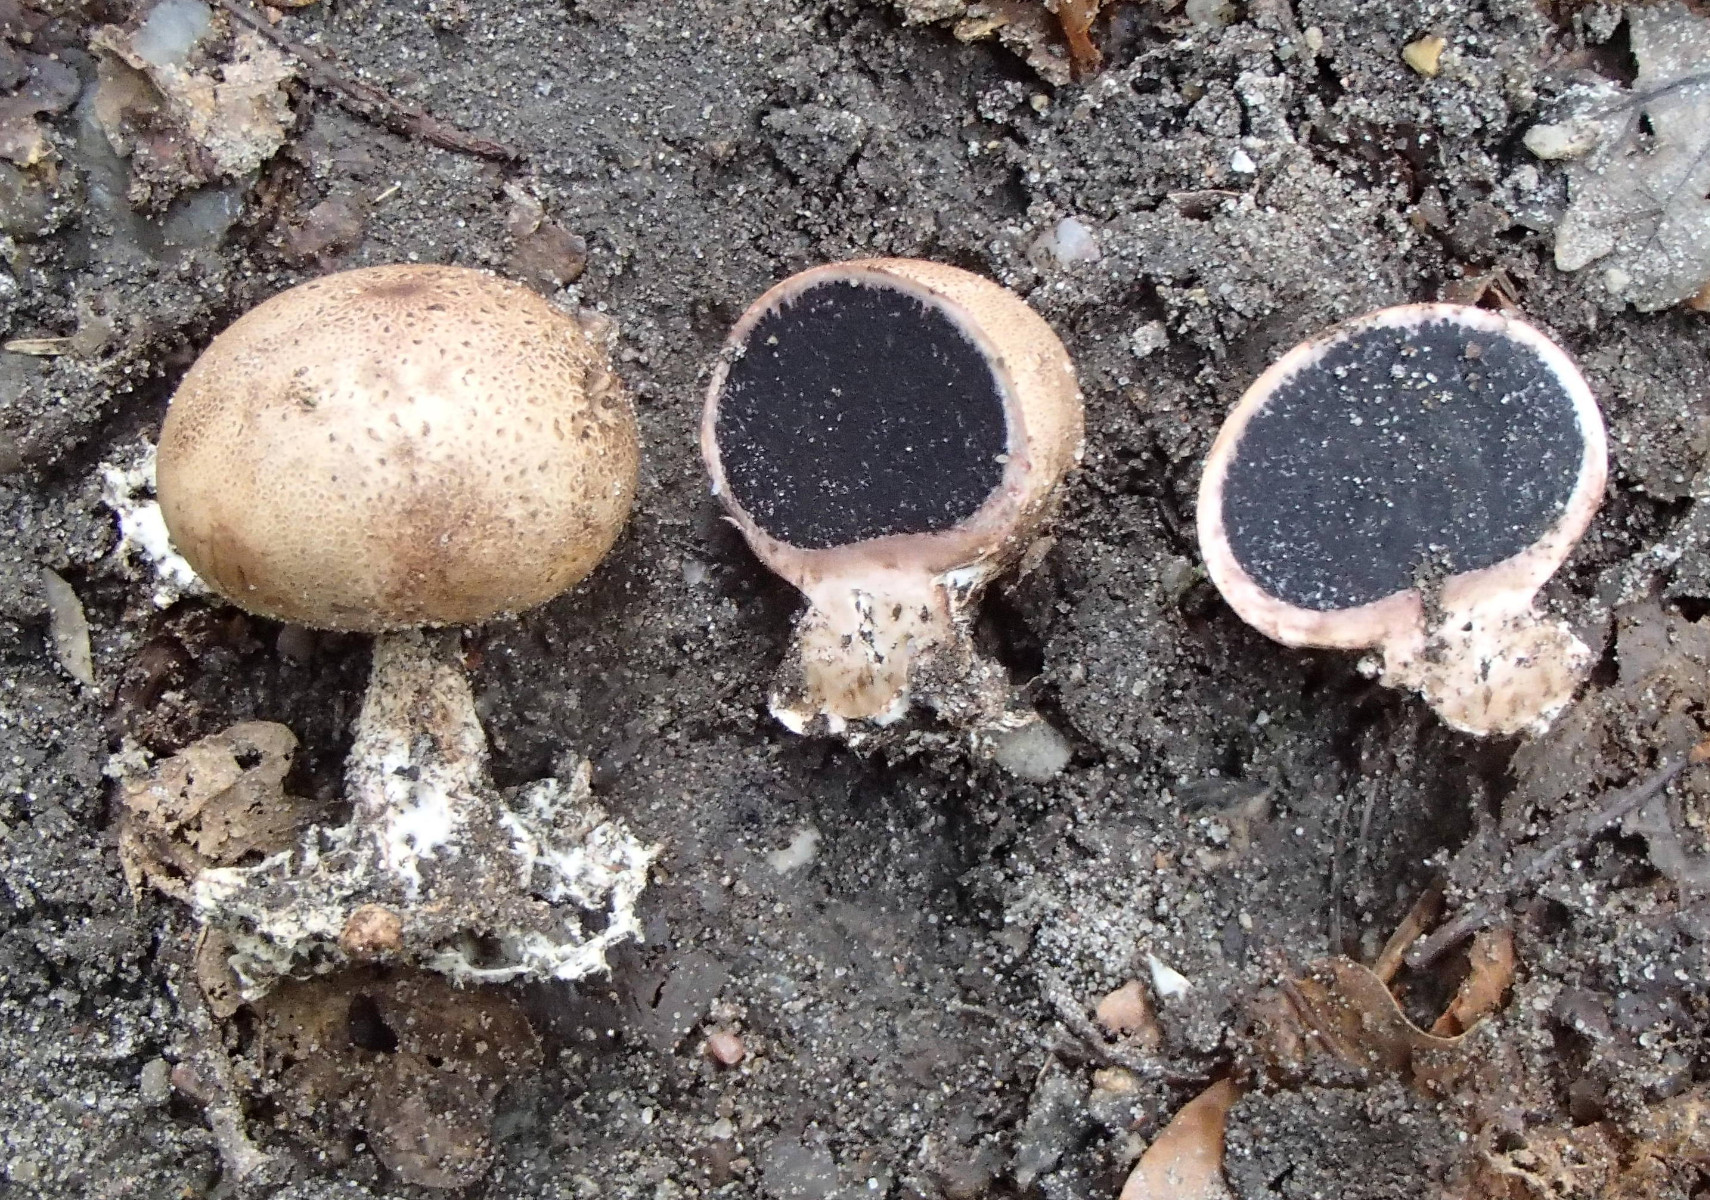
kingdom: Fungi
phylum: Basidiomycota
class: Agaricomycetes
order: Boletales
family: Sclerodermataceae
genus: Scleroderma
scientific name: Scleroderma
